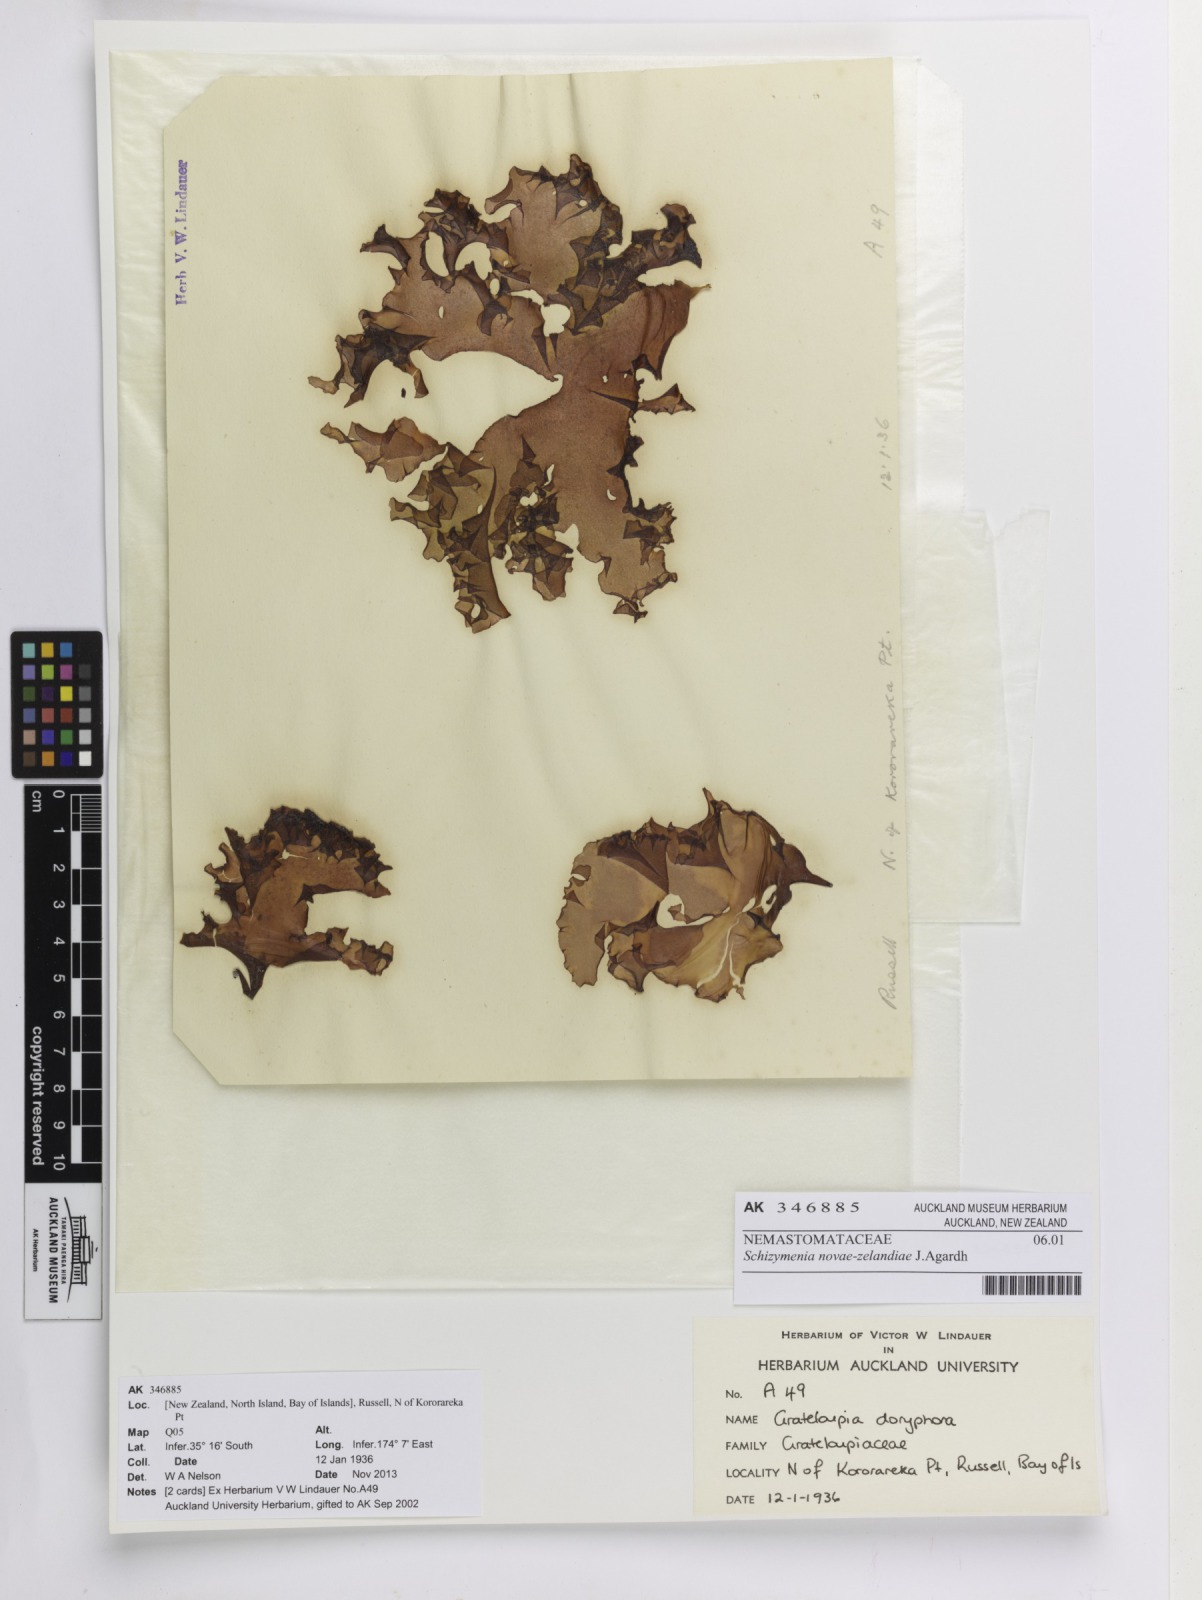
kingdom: Plantae
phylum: Rhodophyta
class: Florideophyceae
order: Nemastomatales
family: Schizymeniaceae
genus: Schizymenia
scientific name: Schizymenia novae-zelandiae
